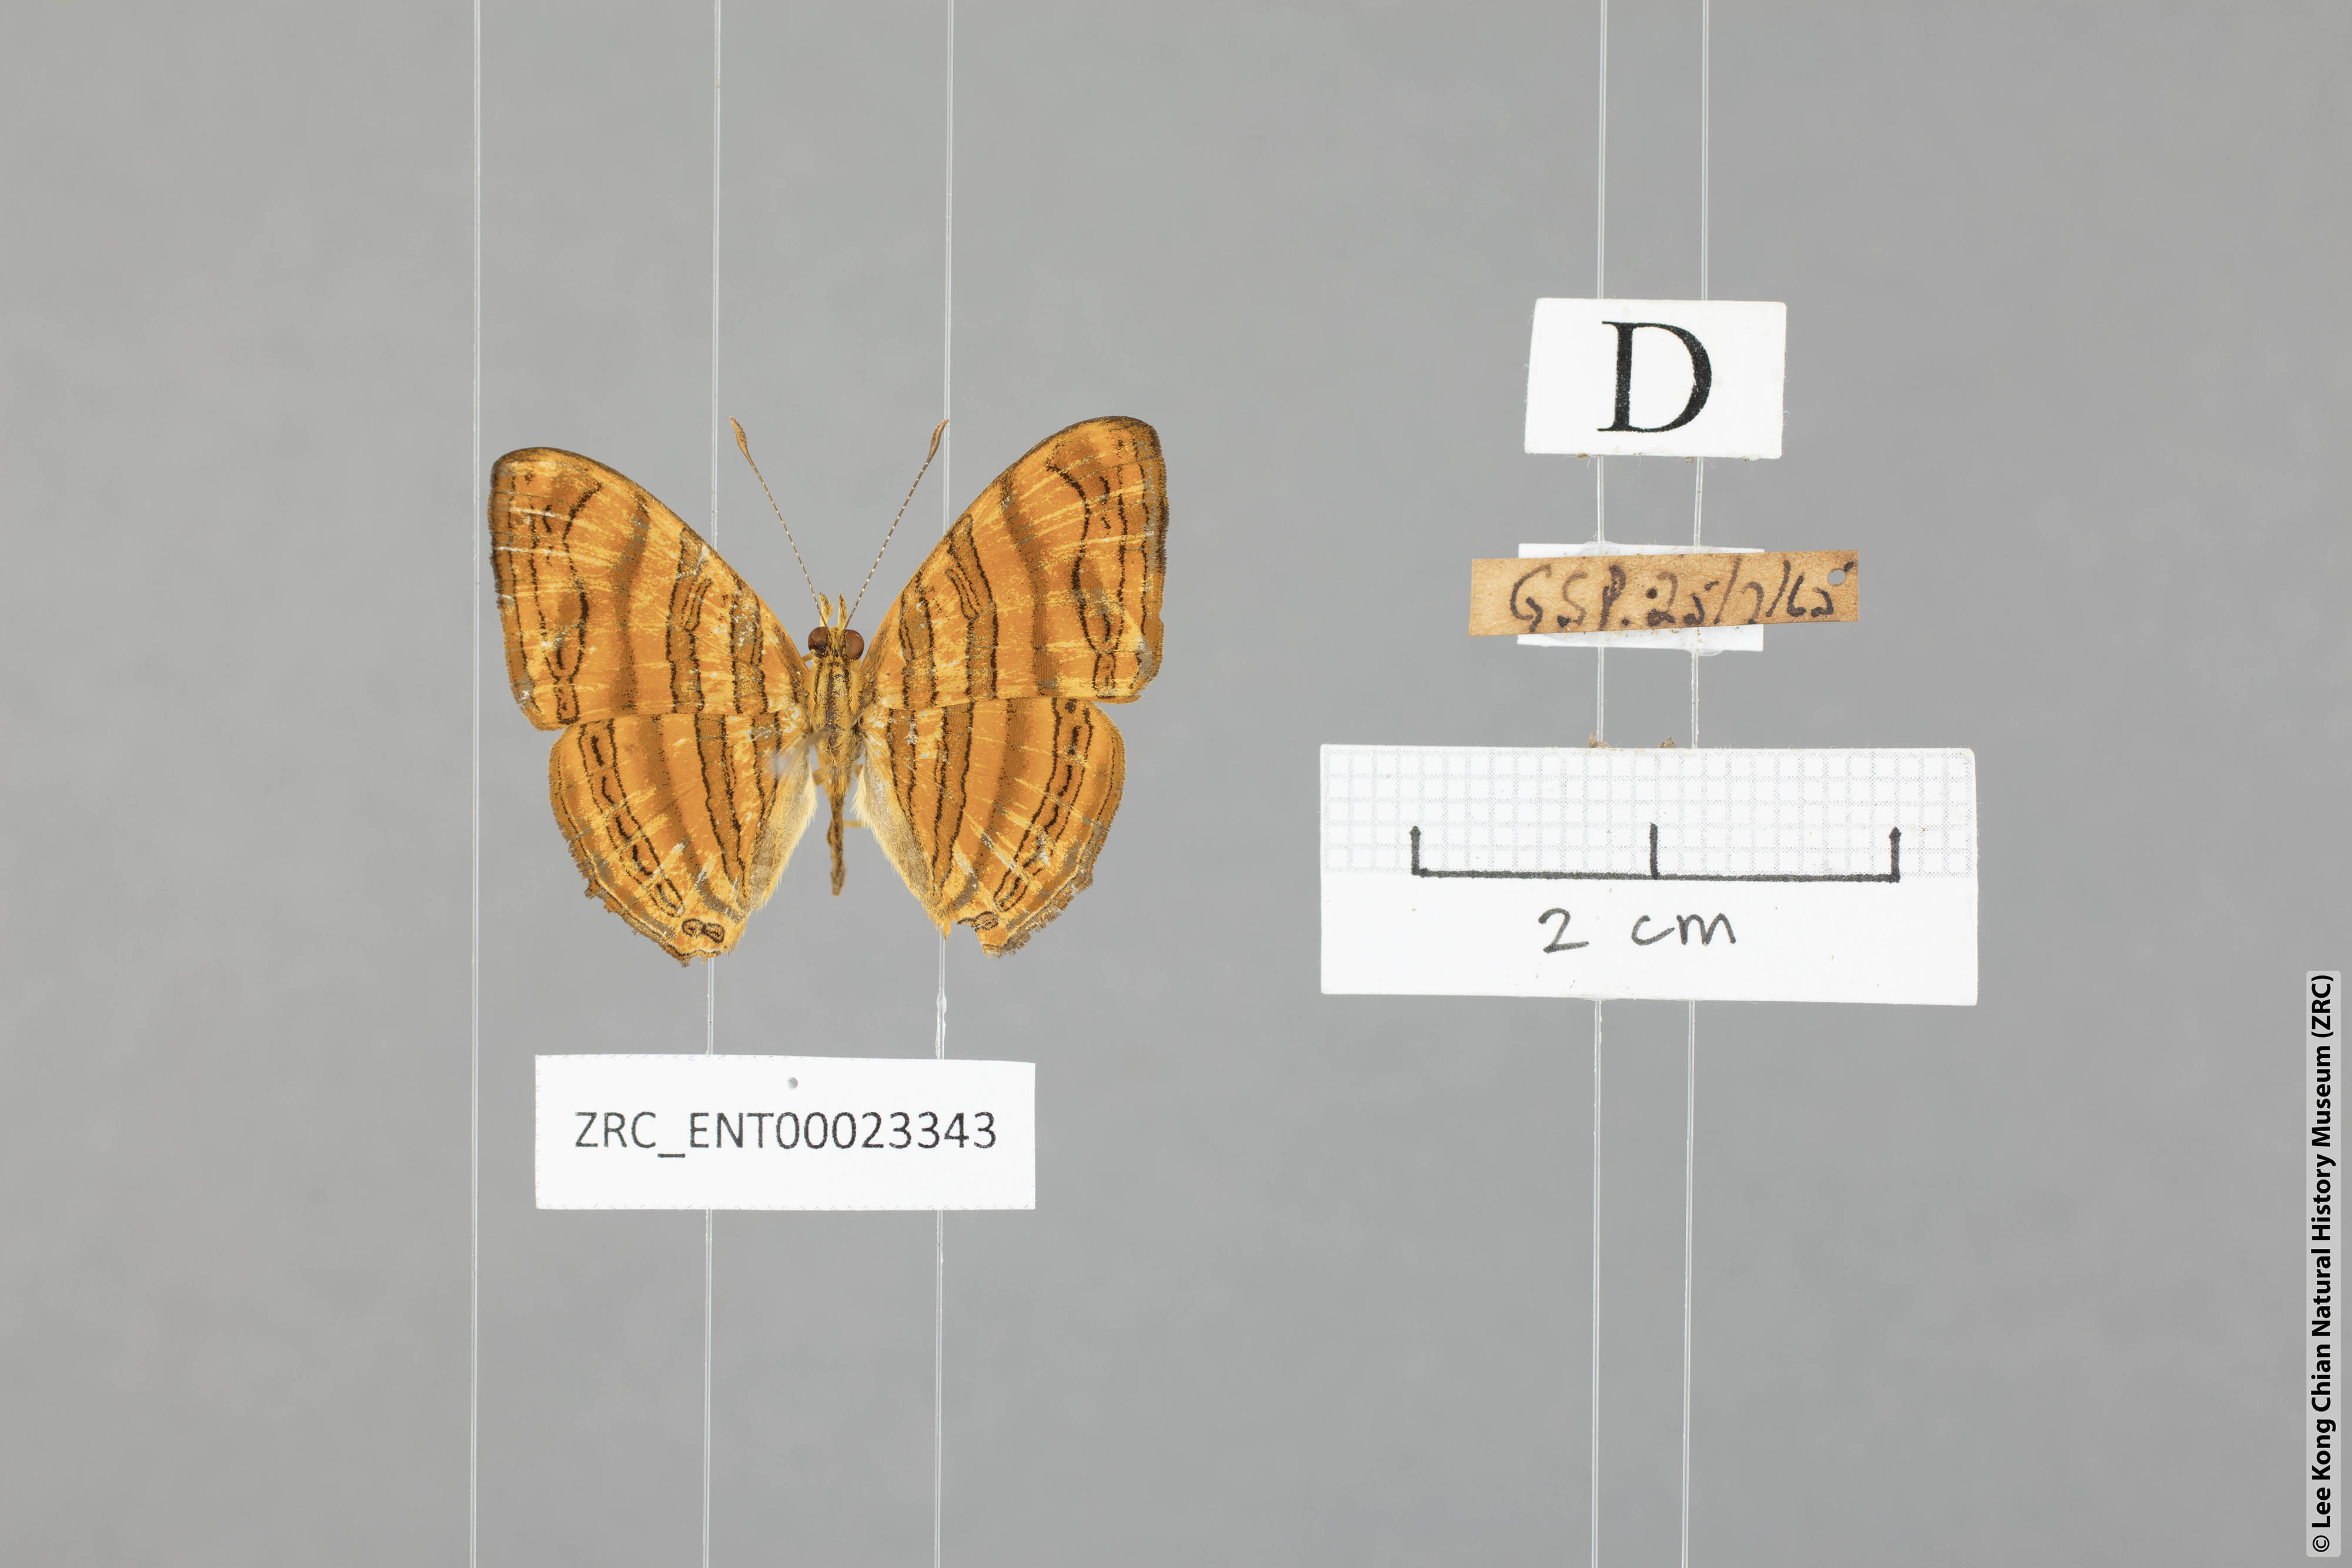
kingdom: Animalia
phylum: Arthropoda
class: Insecta
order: Lepidoptera
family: Nymphalidae
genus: Chersonesia
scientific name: Chersonesia intermedia
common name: Intermediate maplet
